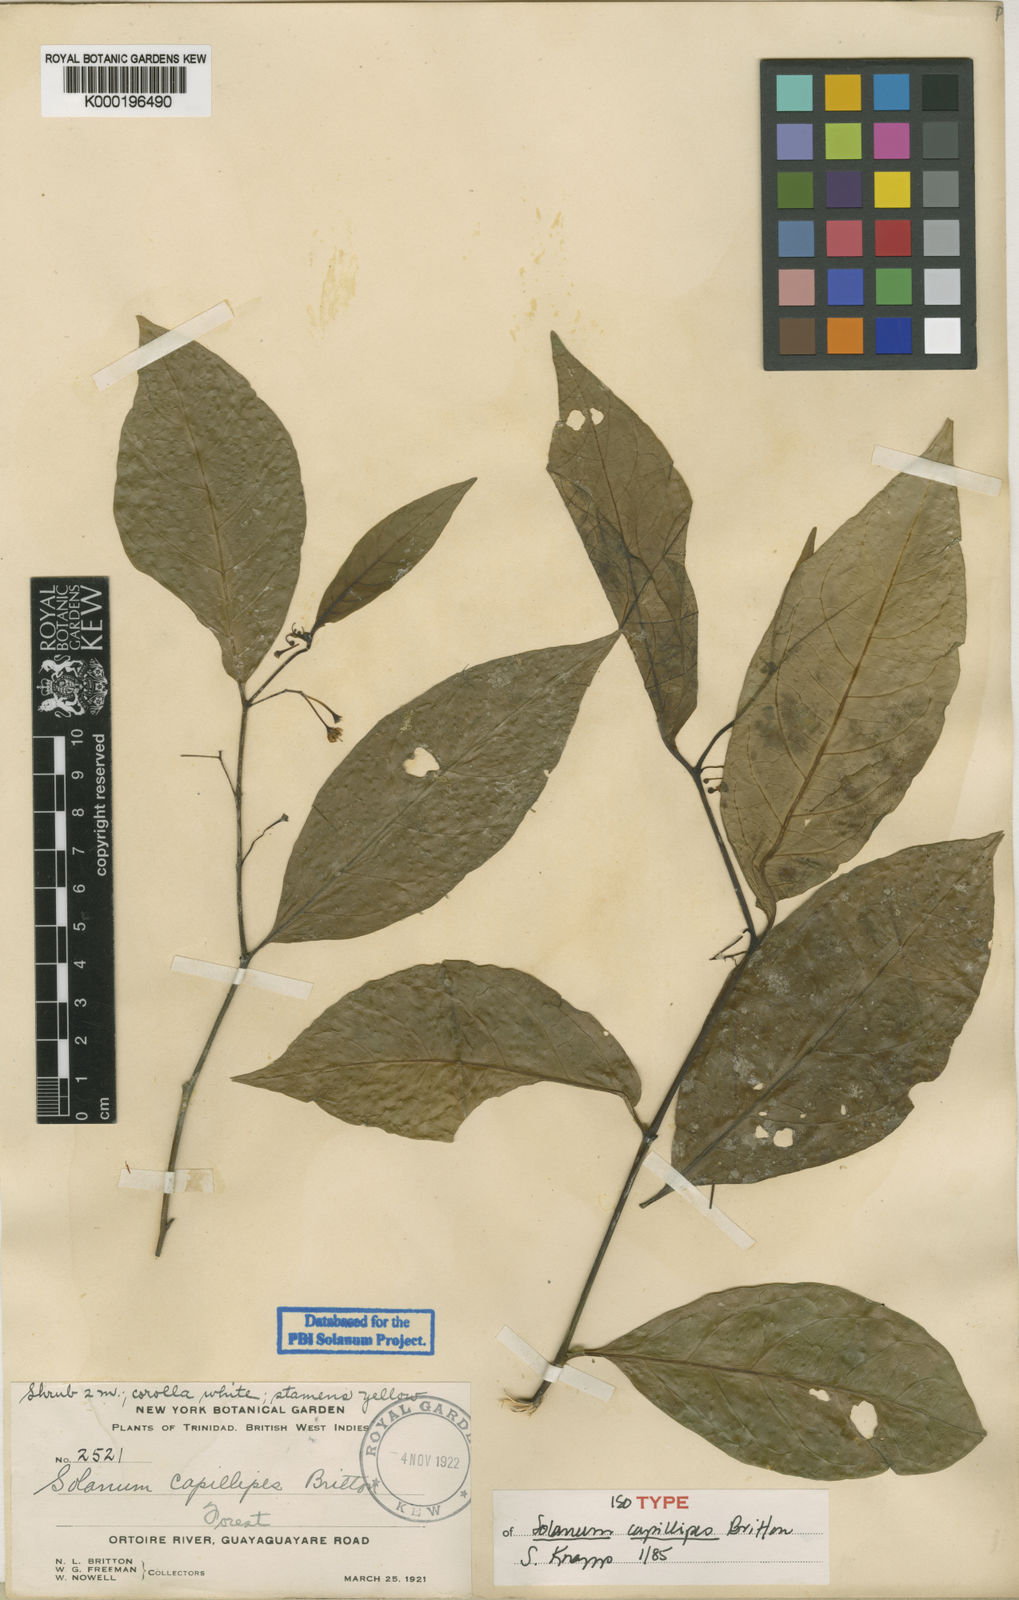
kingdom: Plantae
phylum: Tracheophyta
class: Magnoliopsida
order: Solanales
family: Solanaceae
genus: Solanum
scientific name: Solanum capillipes
